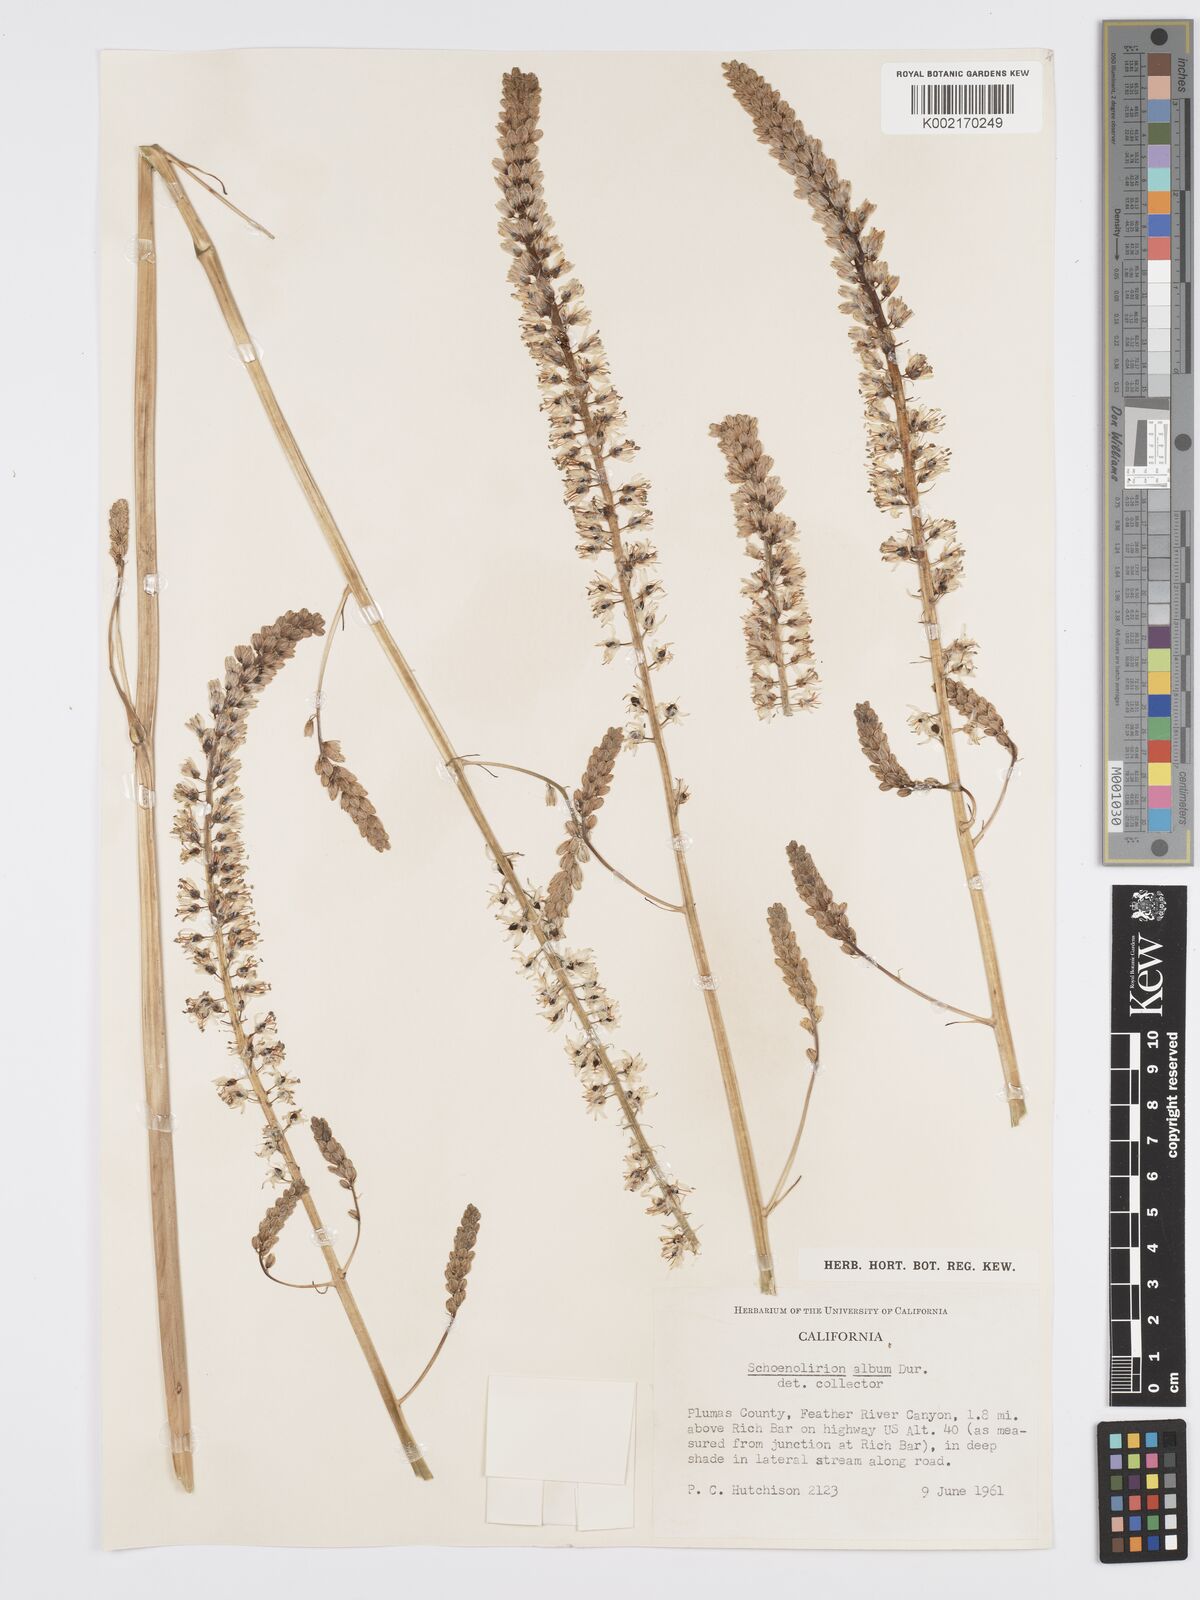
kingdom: Plantae
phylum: Tracheophyta
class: Liliopsida
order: Asparagales
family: Asparagaceae
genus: Hastingsia
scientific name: Hastingsia alba
